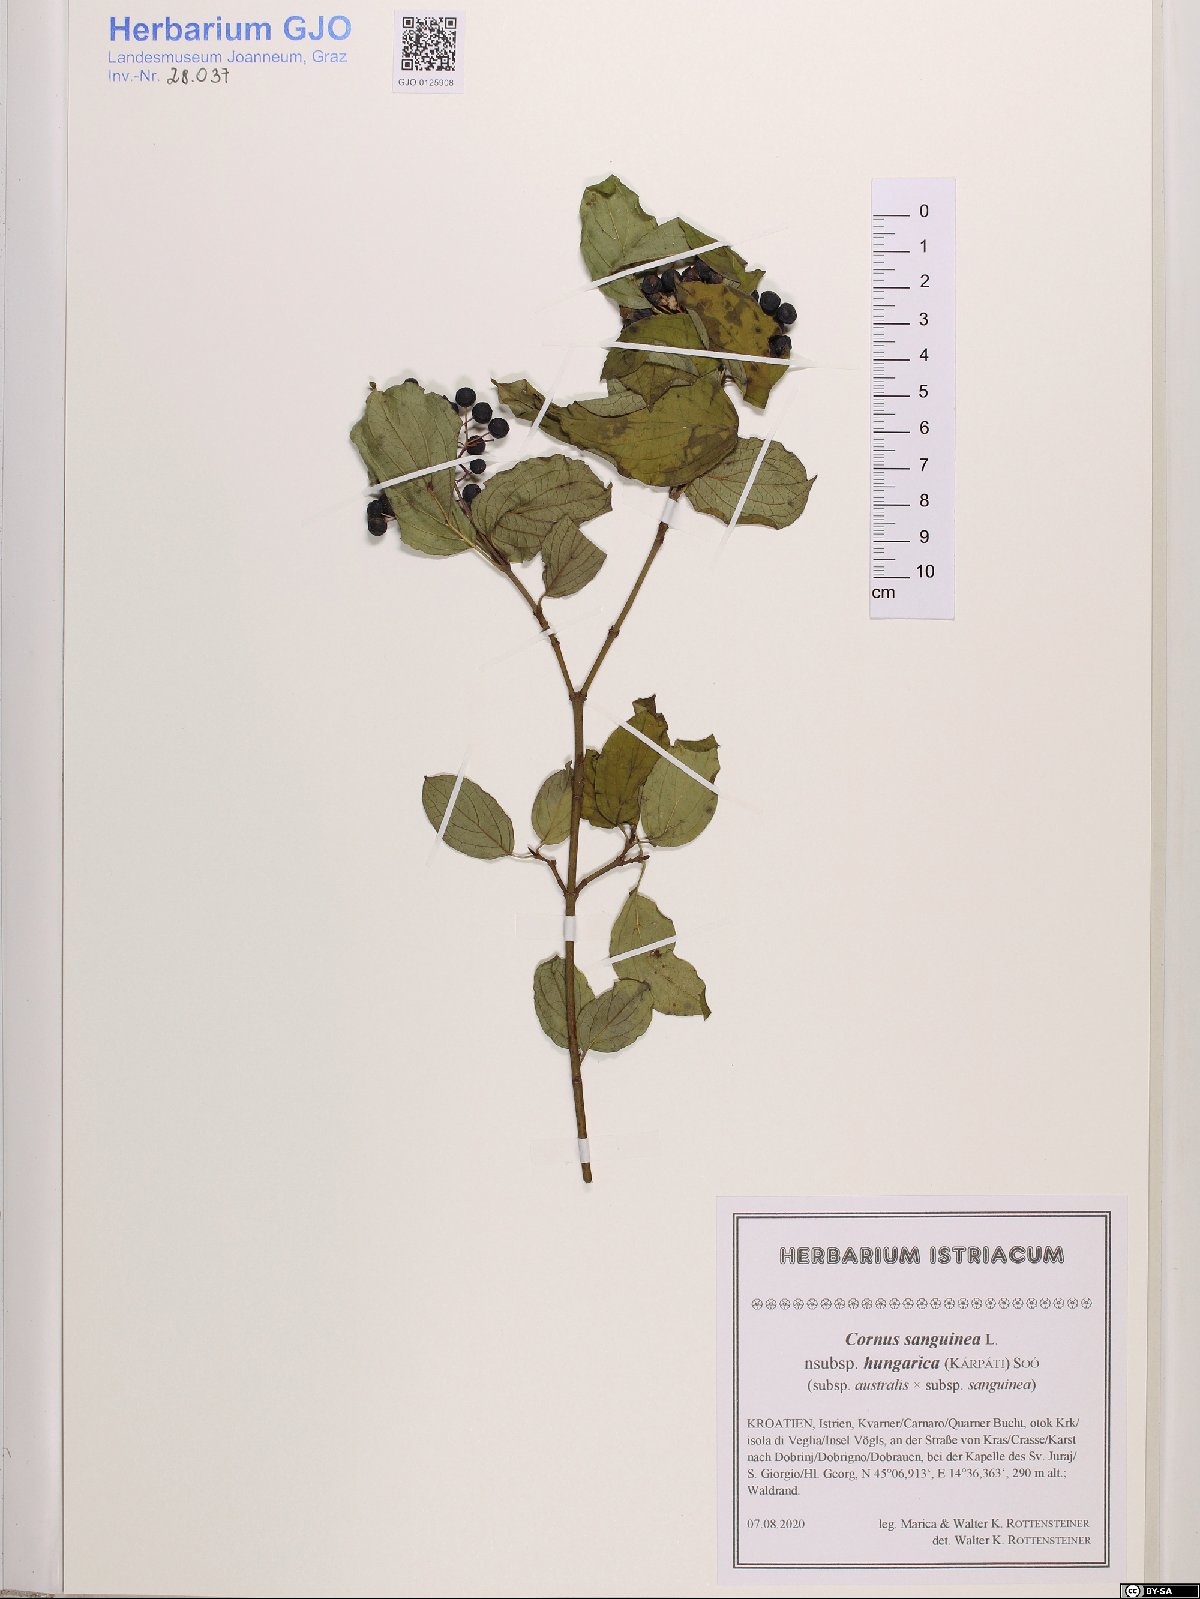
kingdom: Plantae
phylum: Tracheophyta
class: Magnoliopsida
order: Cornales
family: Cornaceae
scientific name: Cornaceae
